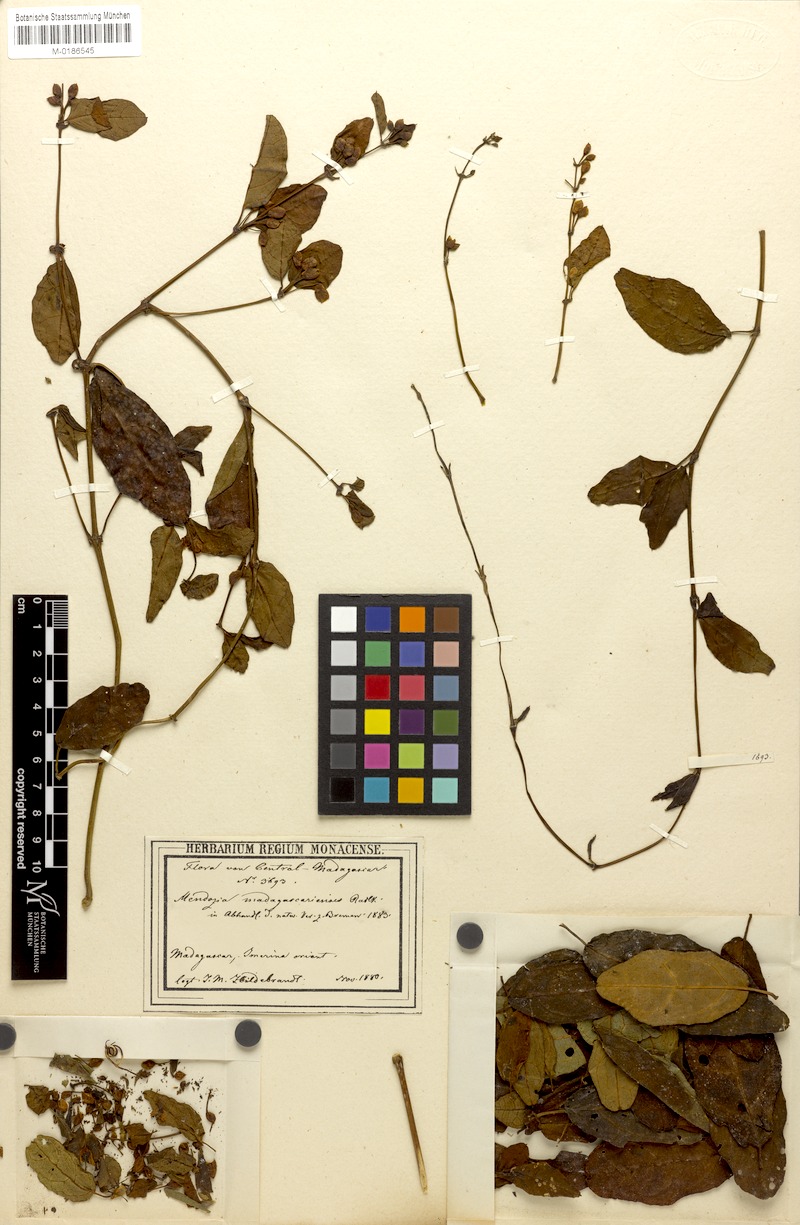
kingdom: Plantae
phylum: Tracheophyta
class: Magnoliopsida
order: Lamiales
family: Acanthaceae
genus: Mendoncia
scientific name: Mendoncia flagellaris
